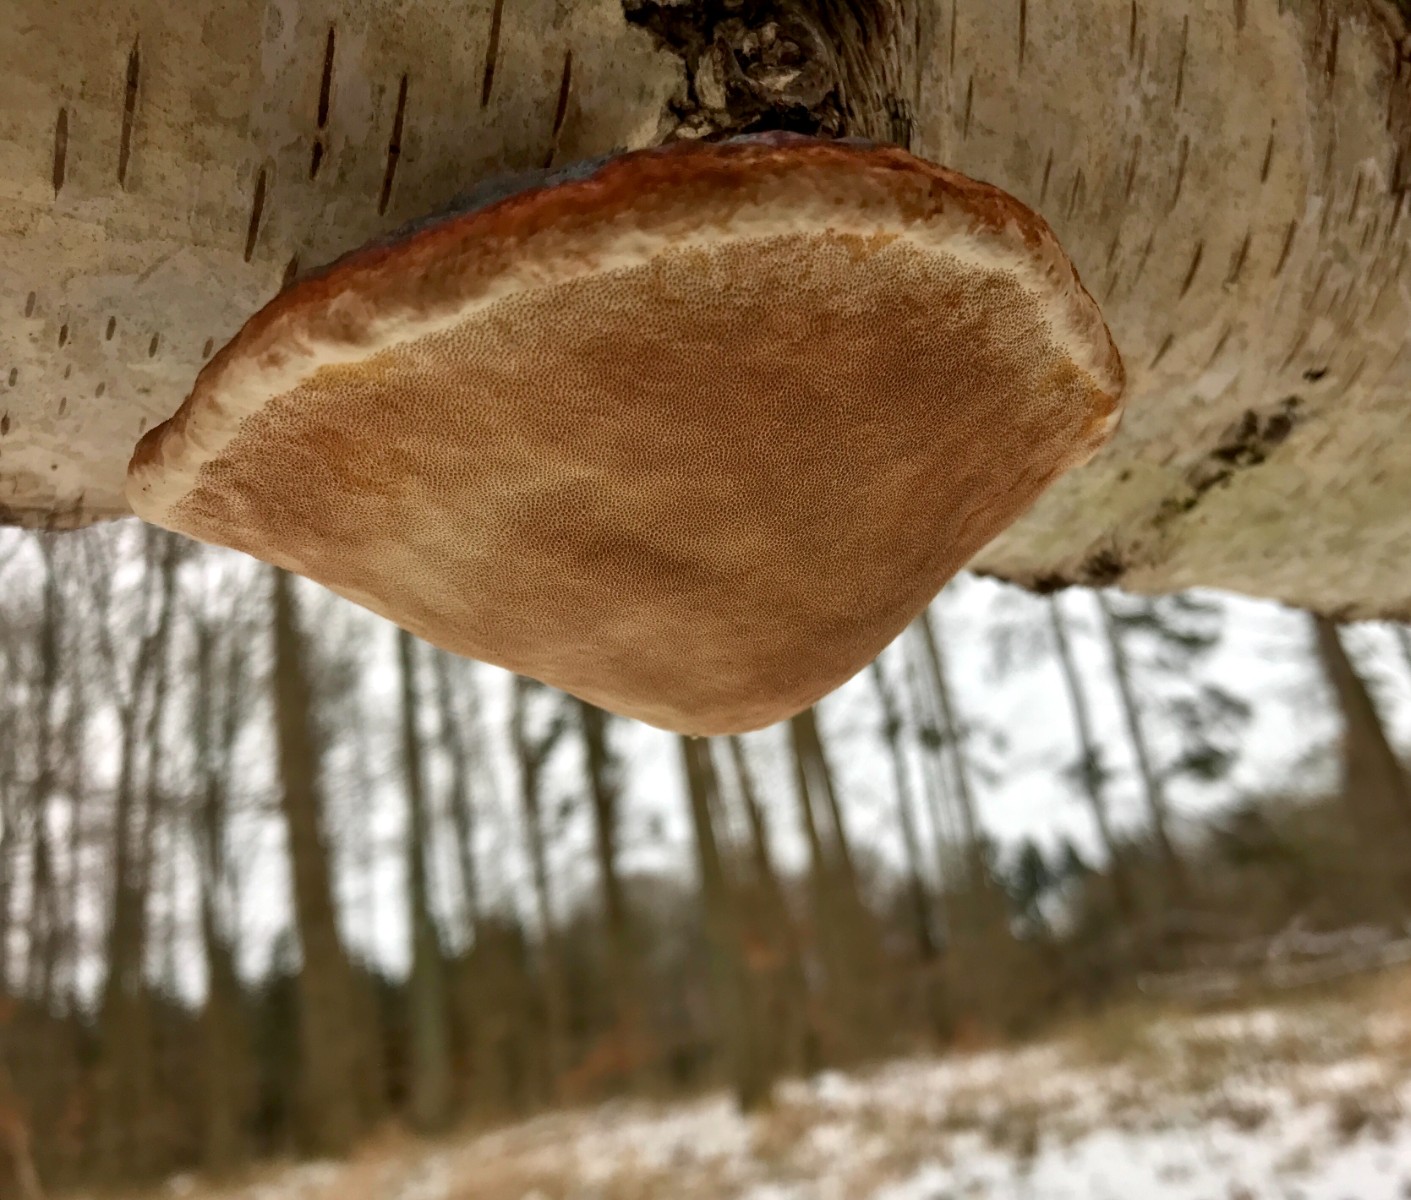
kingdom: Fungi
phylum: Basidiomycota
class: Agaricomycetes
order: Polyporales
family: Fomitopsidaceae
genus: Fomitopsis
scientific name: Fomitopsis pinicola
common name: randbæltet hovporesvamp
